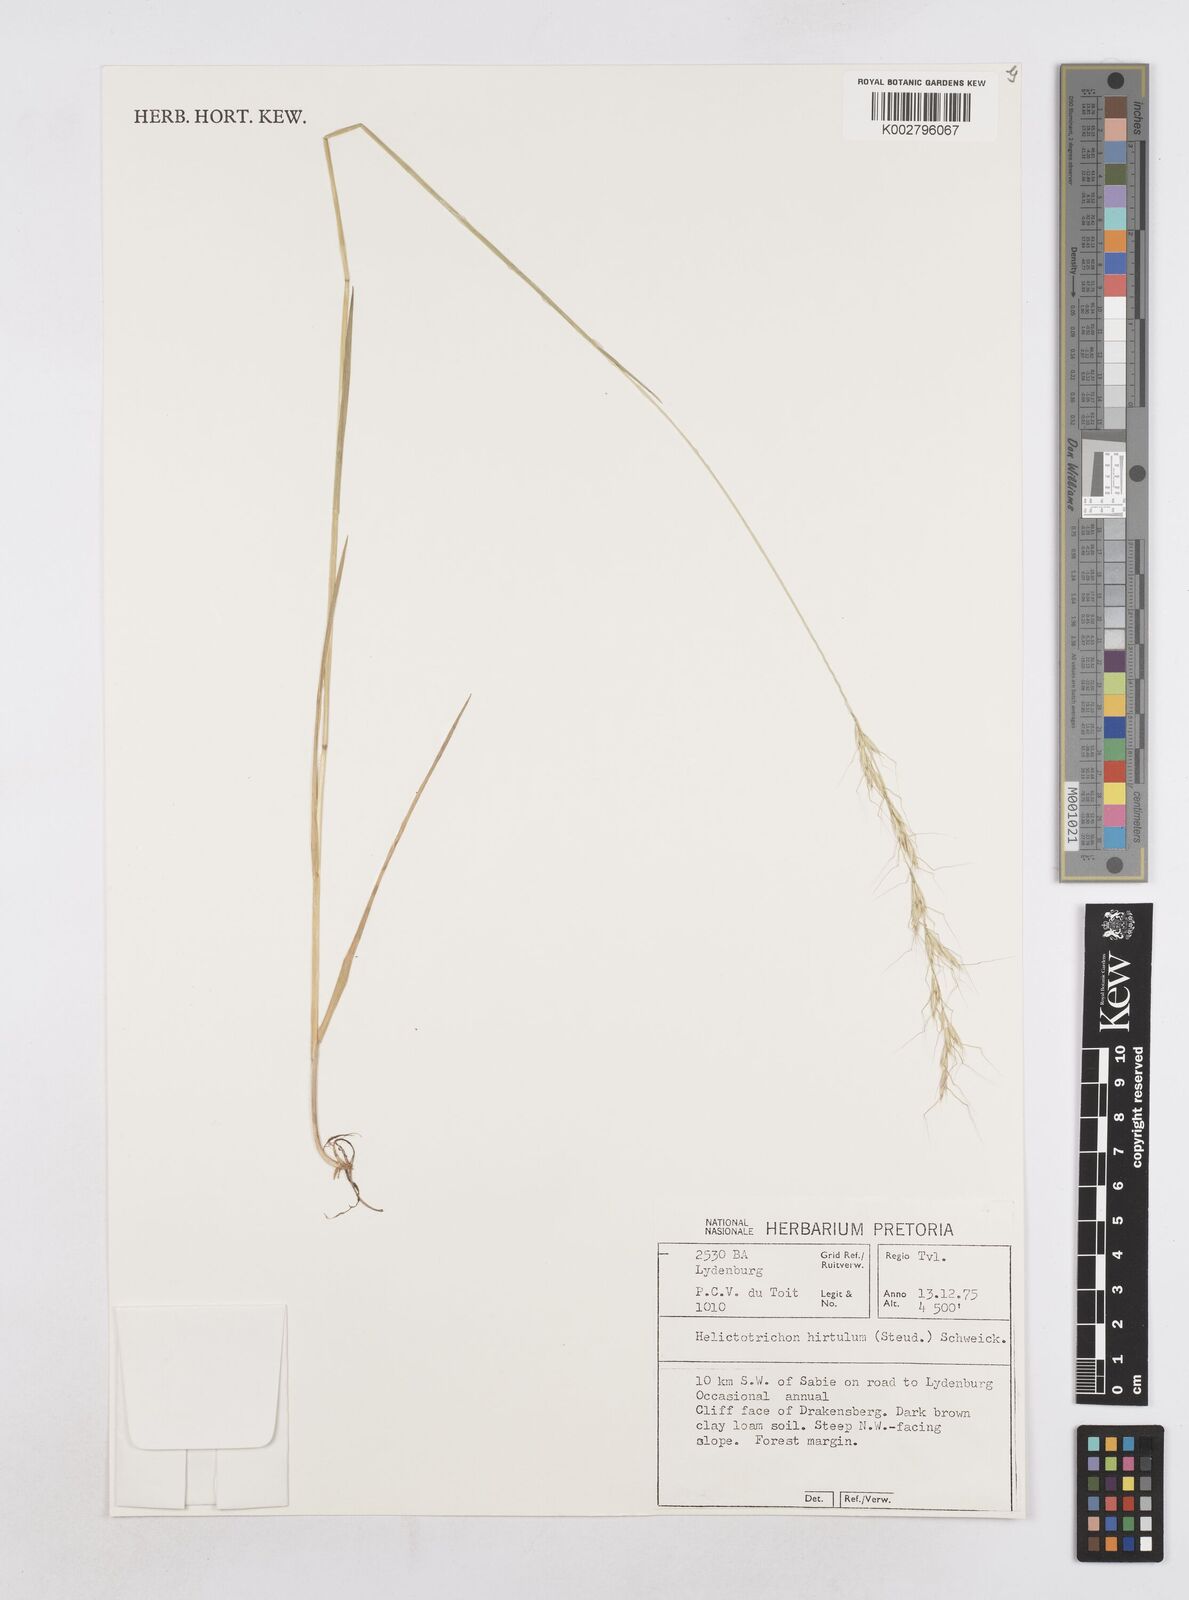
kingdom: Plantae
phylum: Tracheophyta
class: Liliopsida
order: Poales
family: Poaceae
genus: Trisetopsis
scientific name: Trisetopsis hirtula
